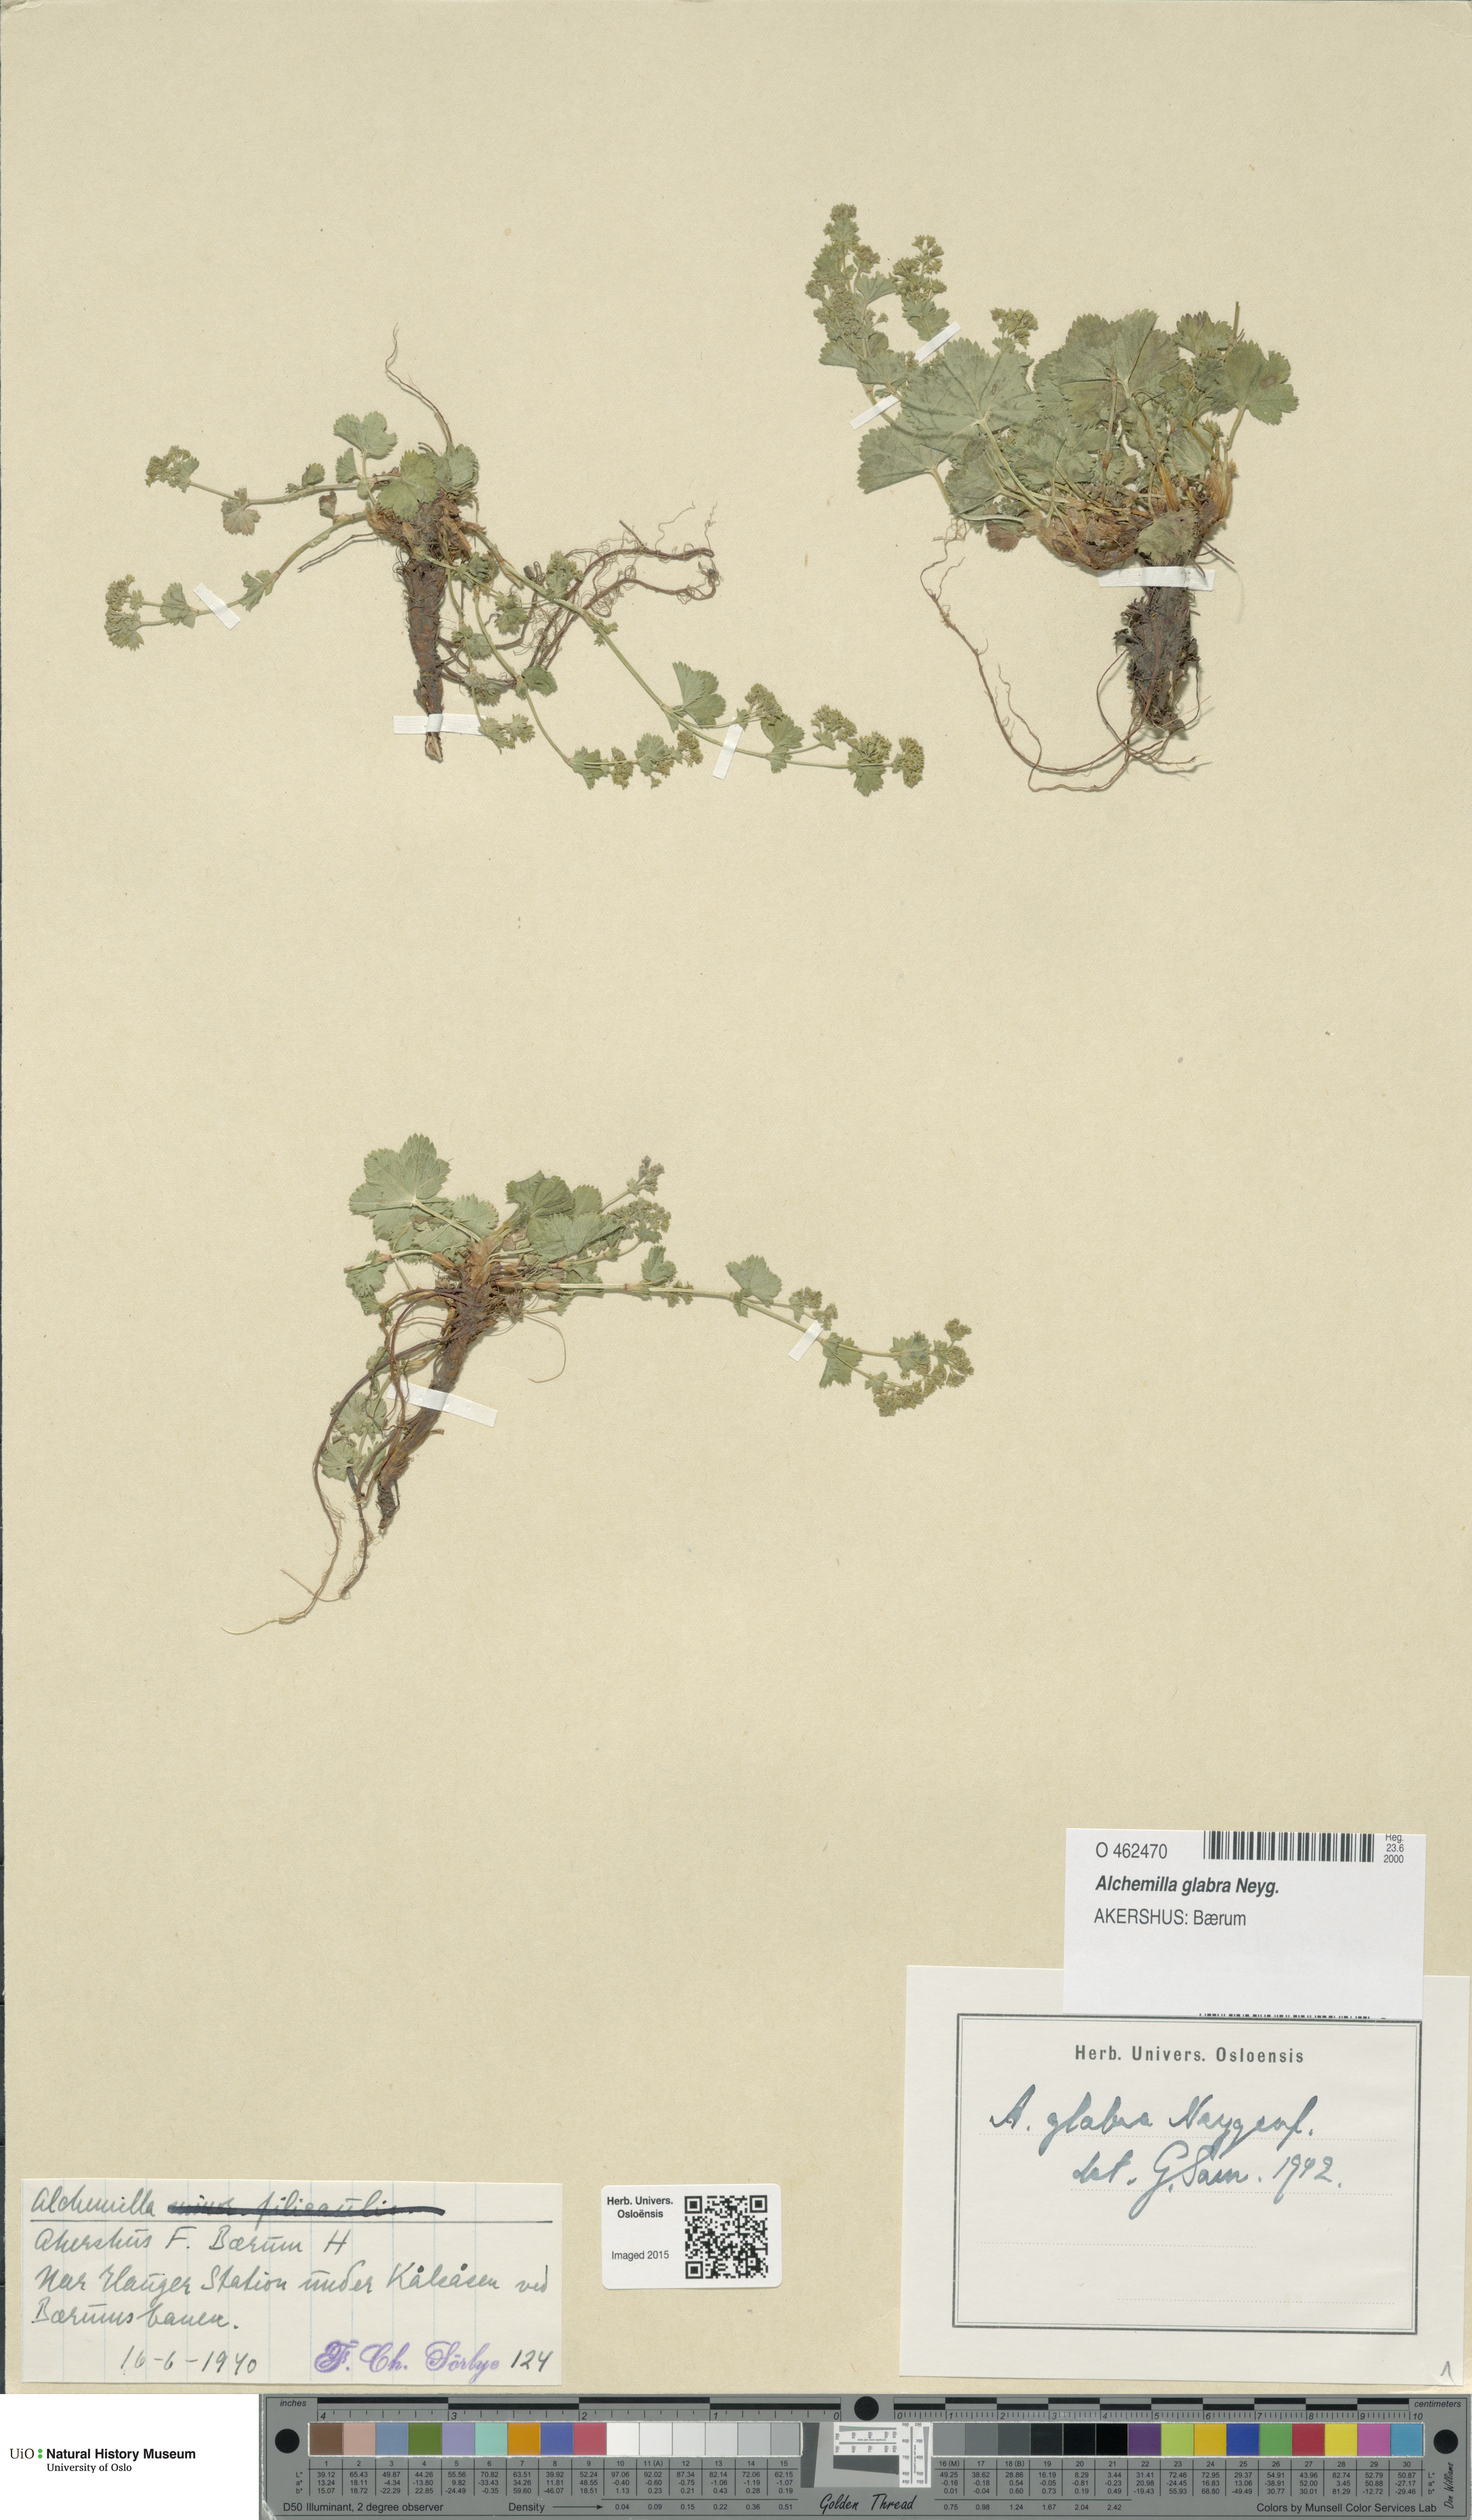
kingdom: Plantae
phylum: Tracheophyta
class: Magnoliopsida
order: Rosales
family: Rosaceae
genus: Alchemilla
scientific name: Alchemilla glabra
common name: Smooth lady's-mantle
